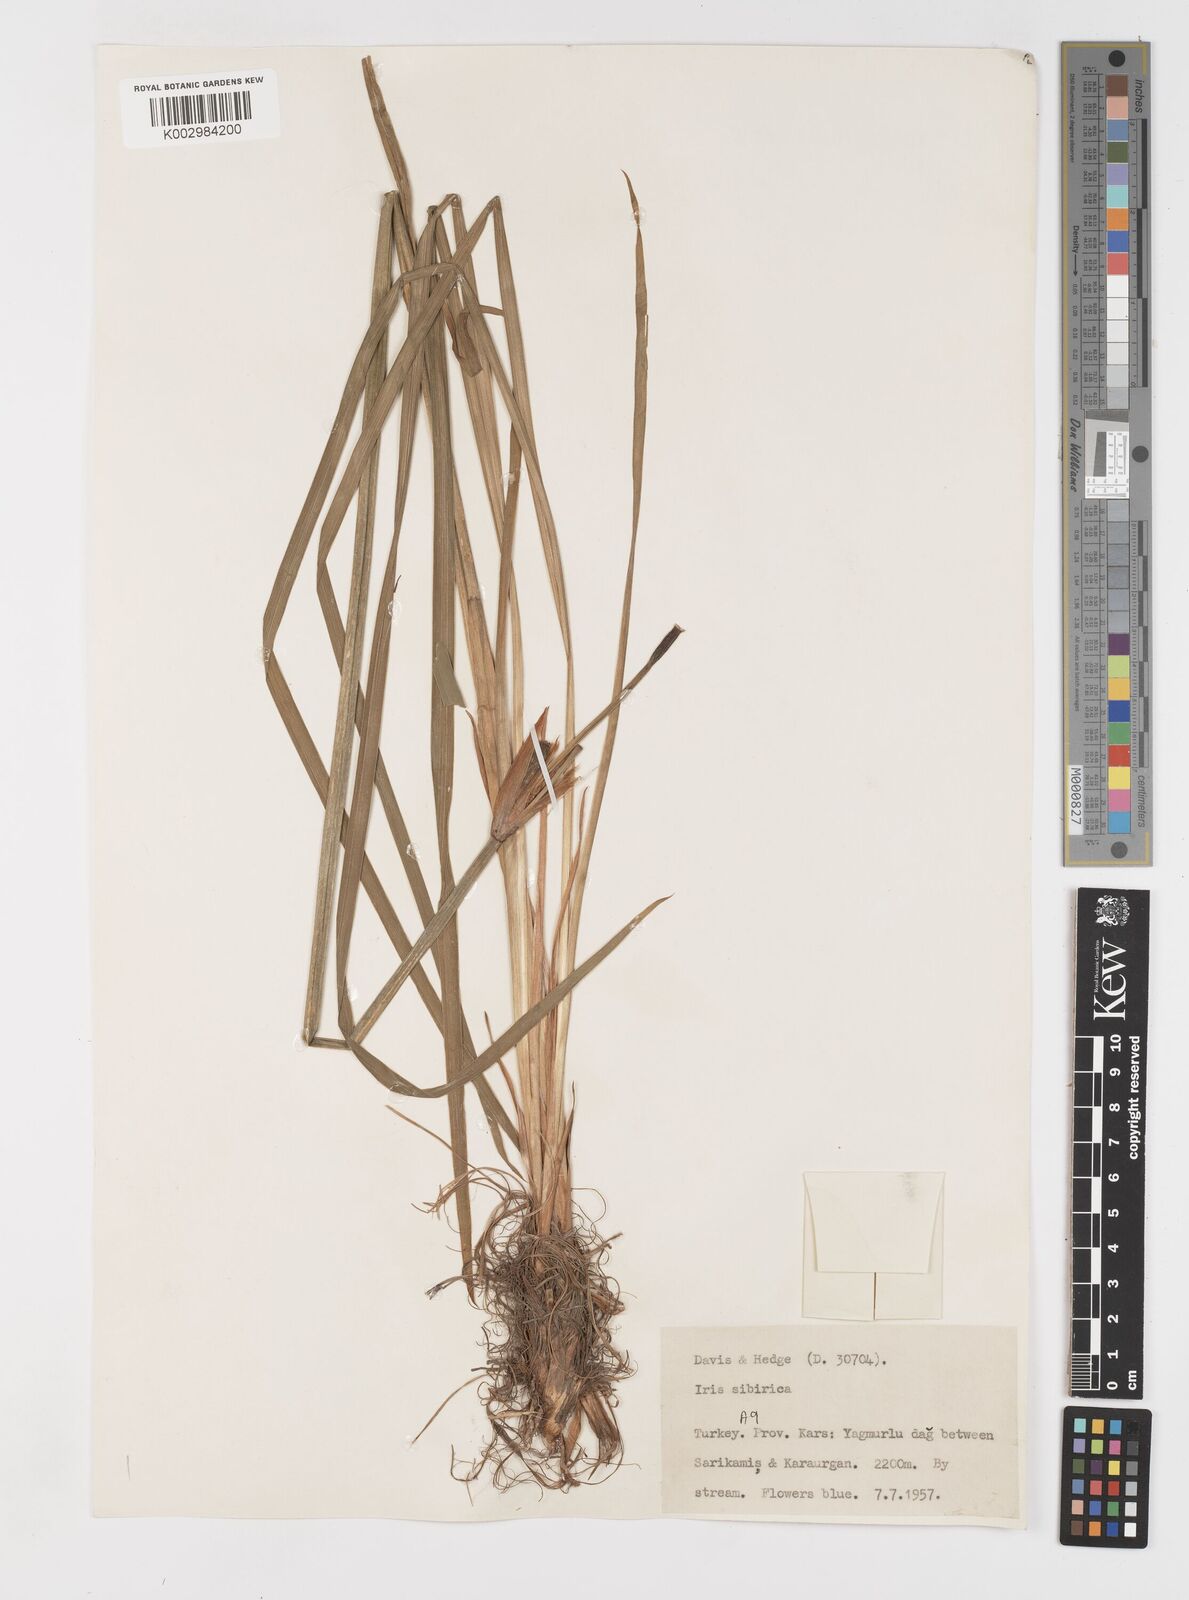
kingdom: Plantae
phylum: Tracheophyta
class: Liliopsida
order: Asparagales
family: Iridaceae
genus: Iris
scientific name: Iris sibirica
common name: Siberian iris
